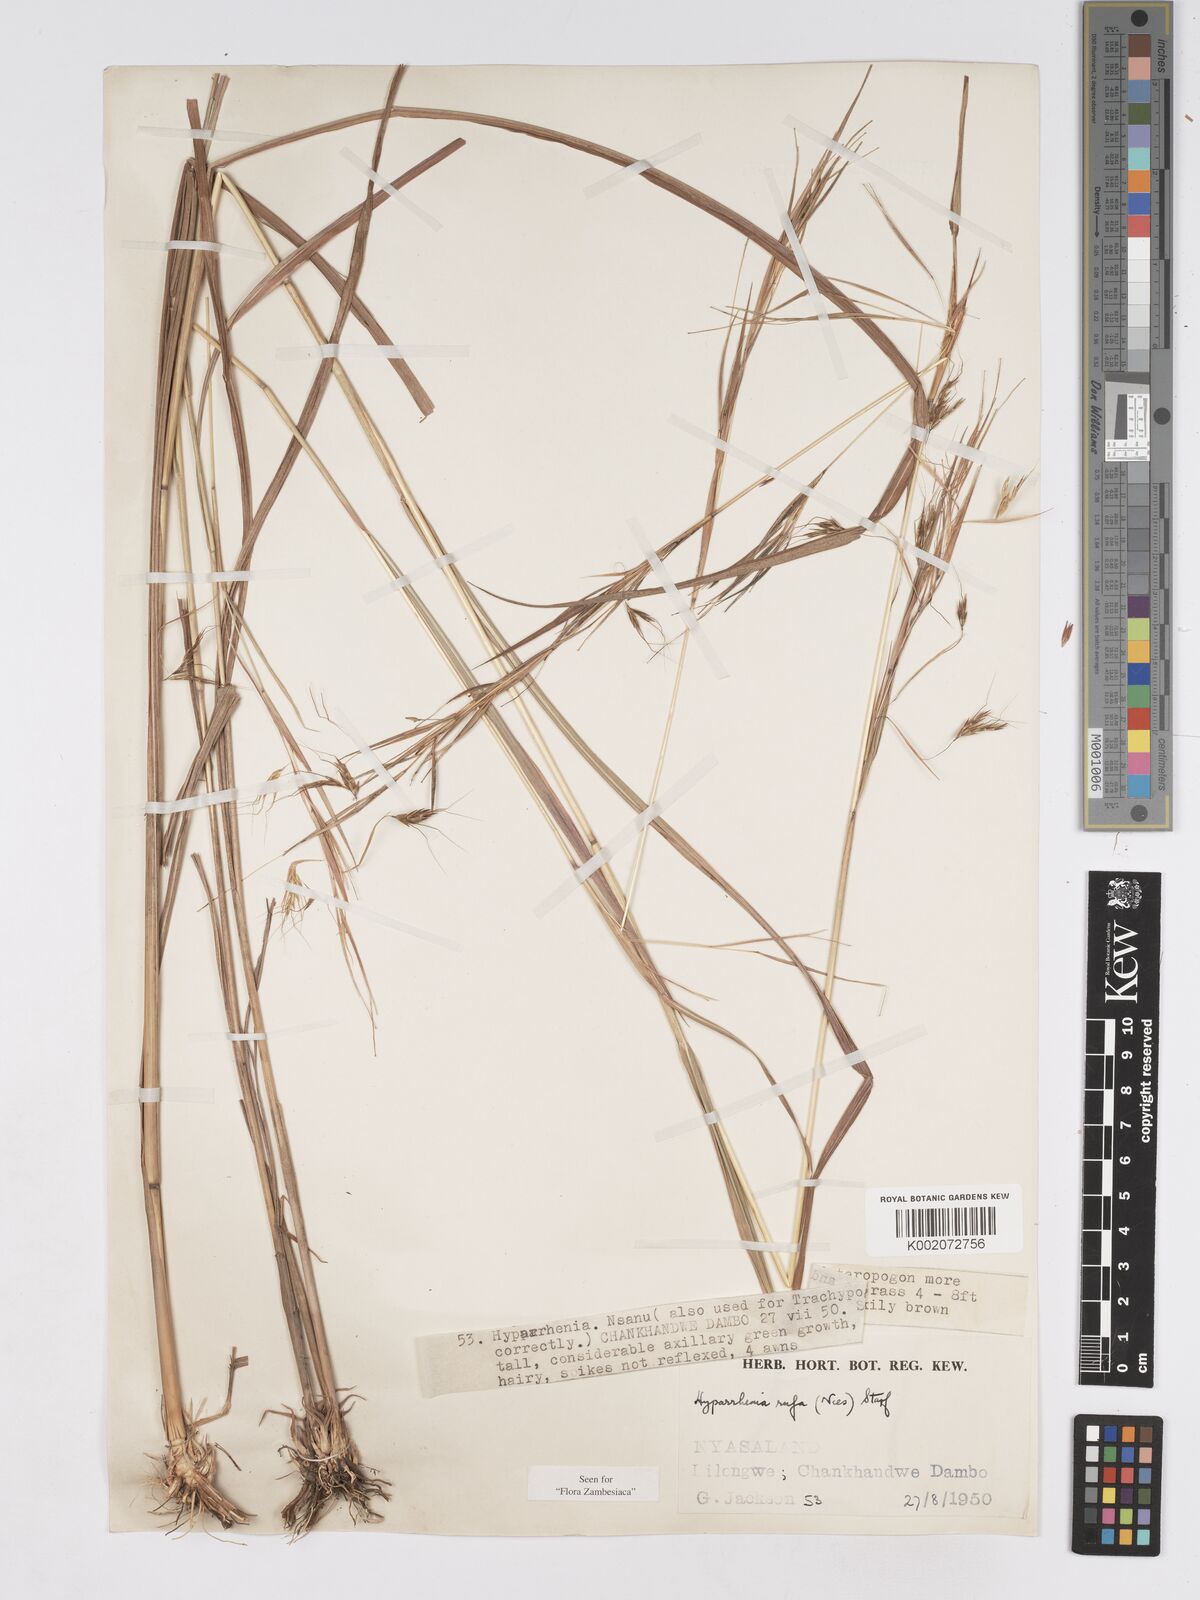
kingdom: Plantae
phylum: Tracheophyta
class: Liliopsida
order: Poales
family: Poaceae
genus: Hyparrhenia
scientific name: Hyparrhenia rufa
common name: Jaraguagrass
